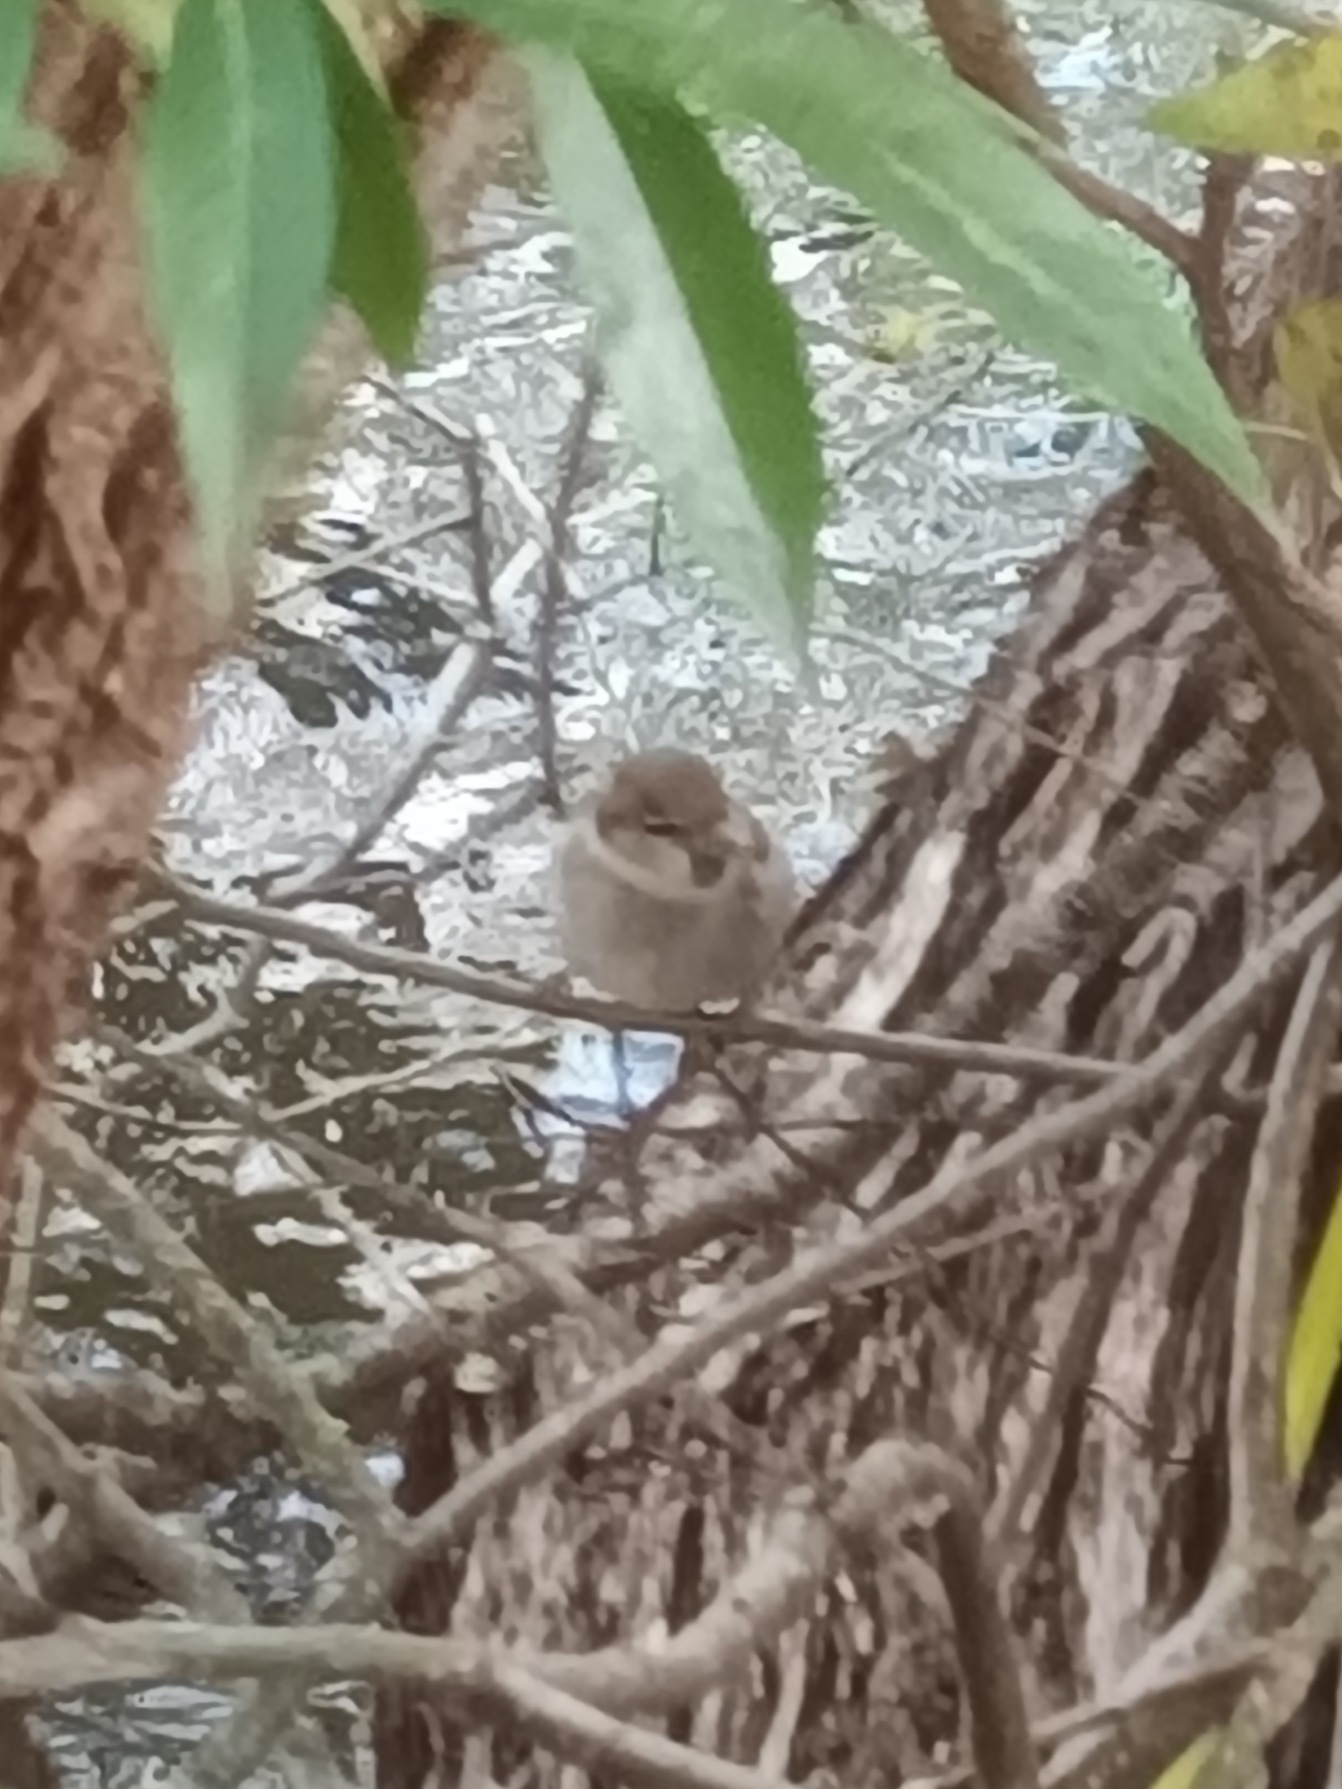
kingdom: Animalia
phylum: Chordata
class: Aves
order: Passeriformes
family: Passeridae
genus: Passer
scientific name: Passer domesticus
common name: Gråspurv
